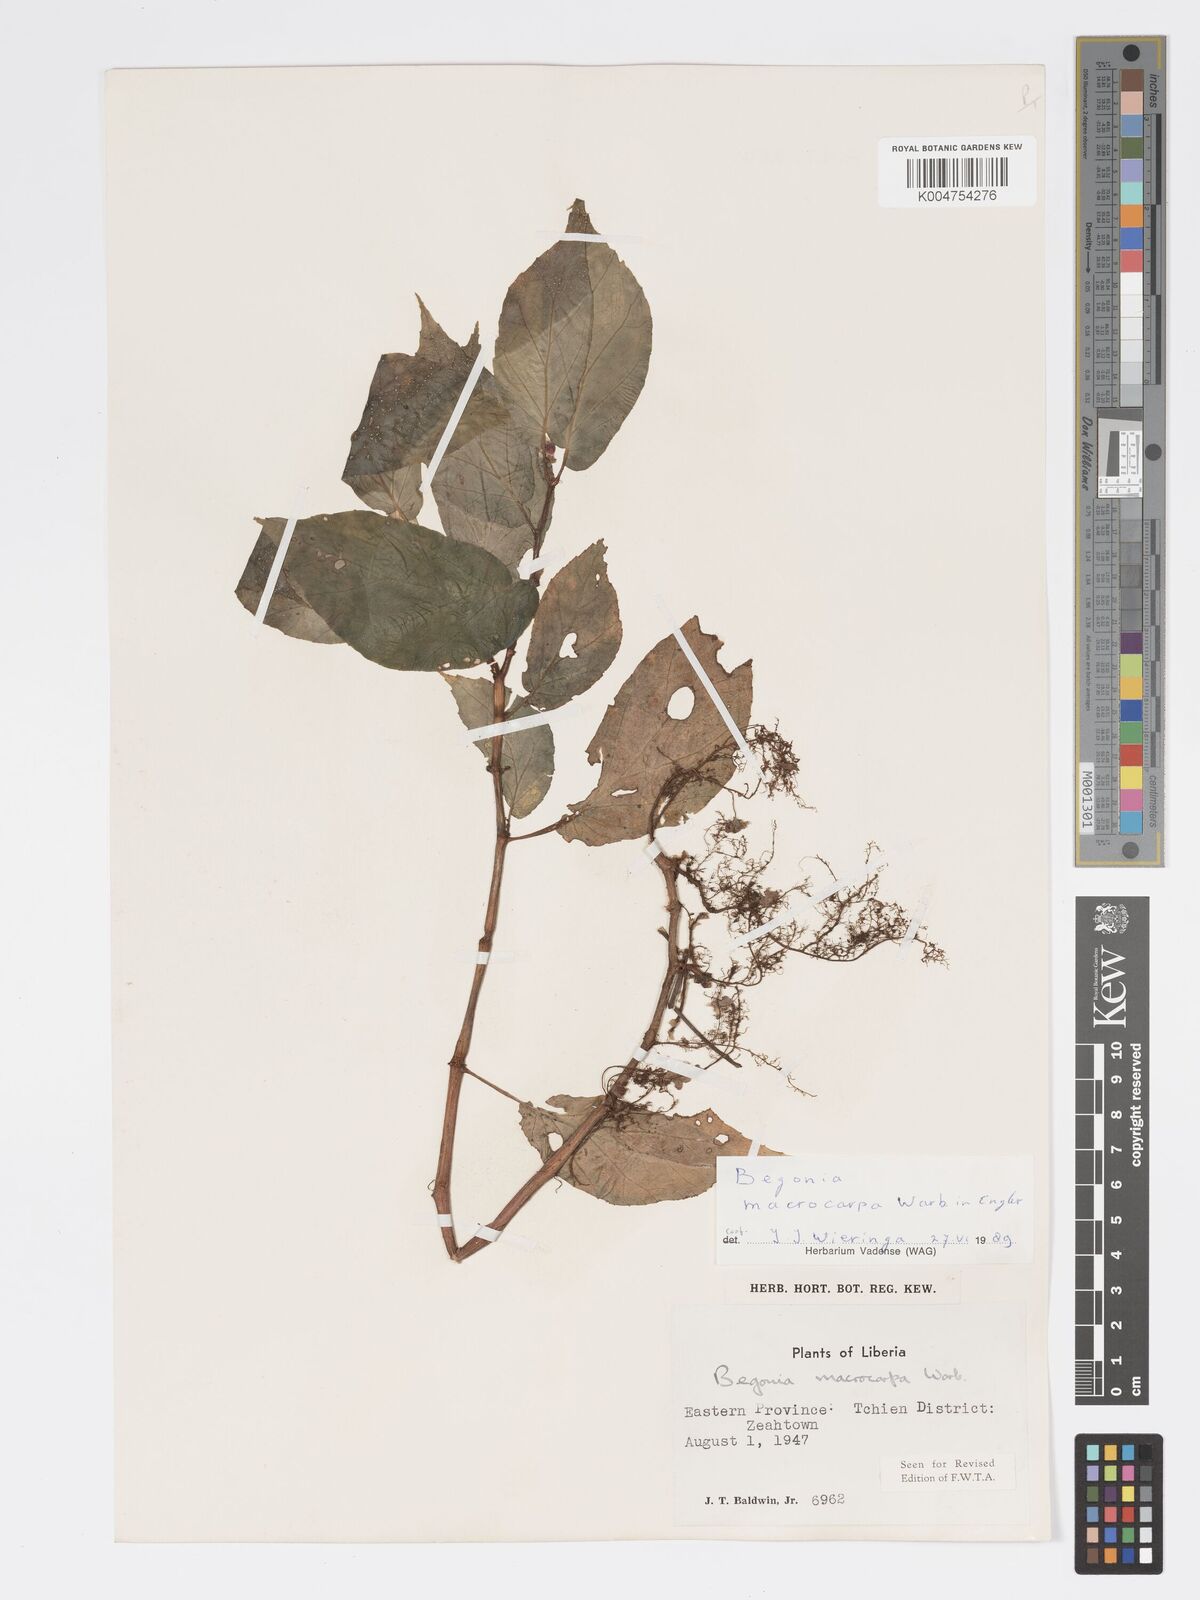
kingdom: Plantae
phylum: Tracheophyta
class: Magnoliopsida
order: Cucurbitales
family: Begoniaceae
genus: Begonia
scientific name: Begonia macrocarpa
